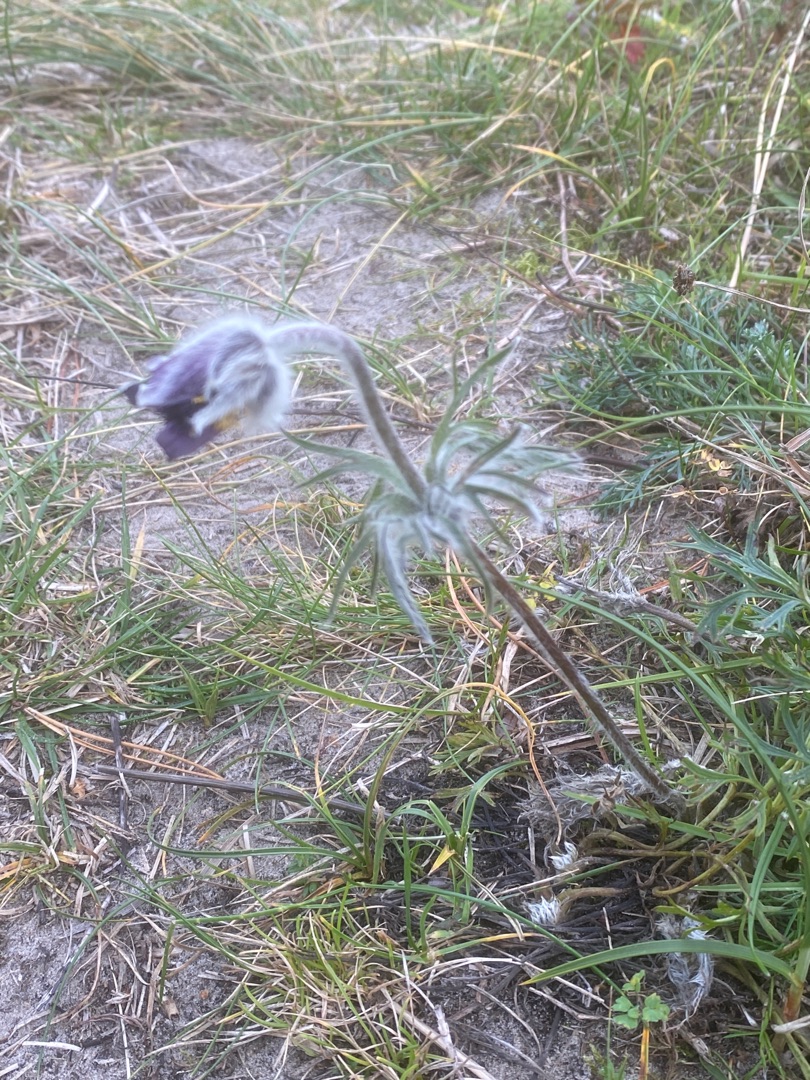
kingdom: Plantae
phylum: Tracheophyta
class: Magnoliopsida
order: Ranunculales
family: Ranunculaceae
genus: Pulsatilla
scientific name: Pulsatilla pratensis
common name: Nikkende kobjælde
